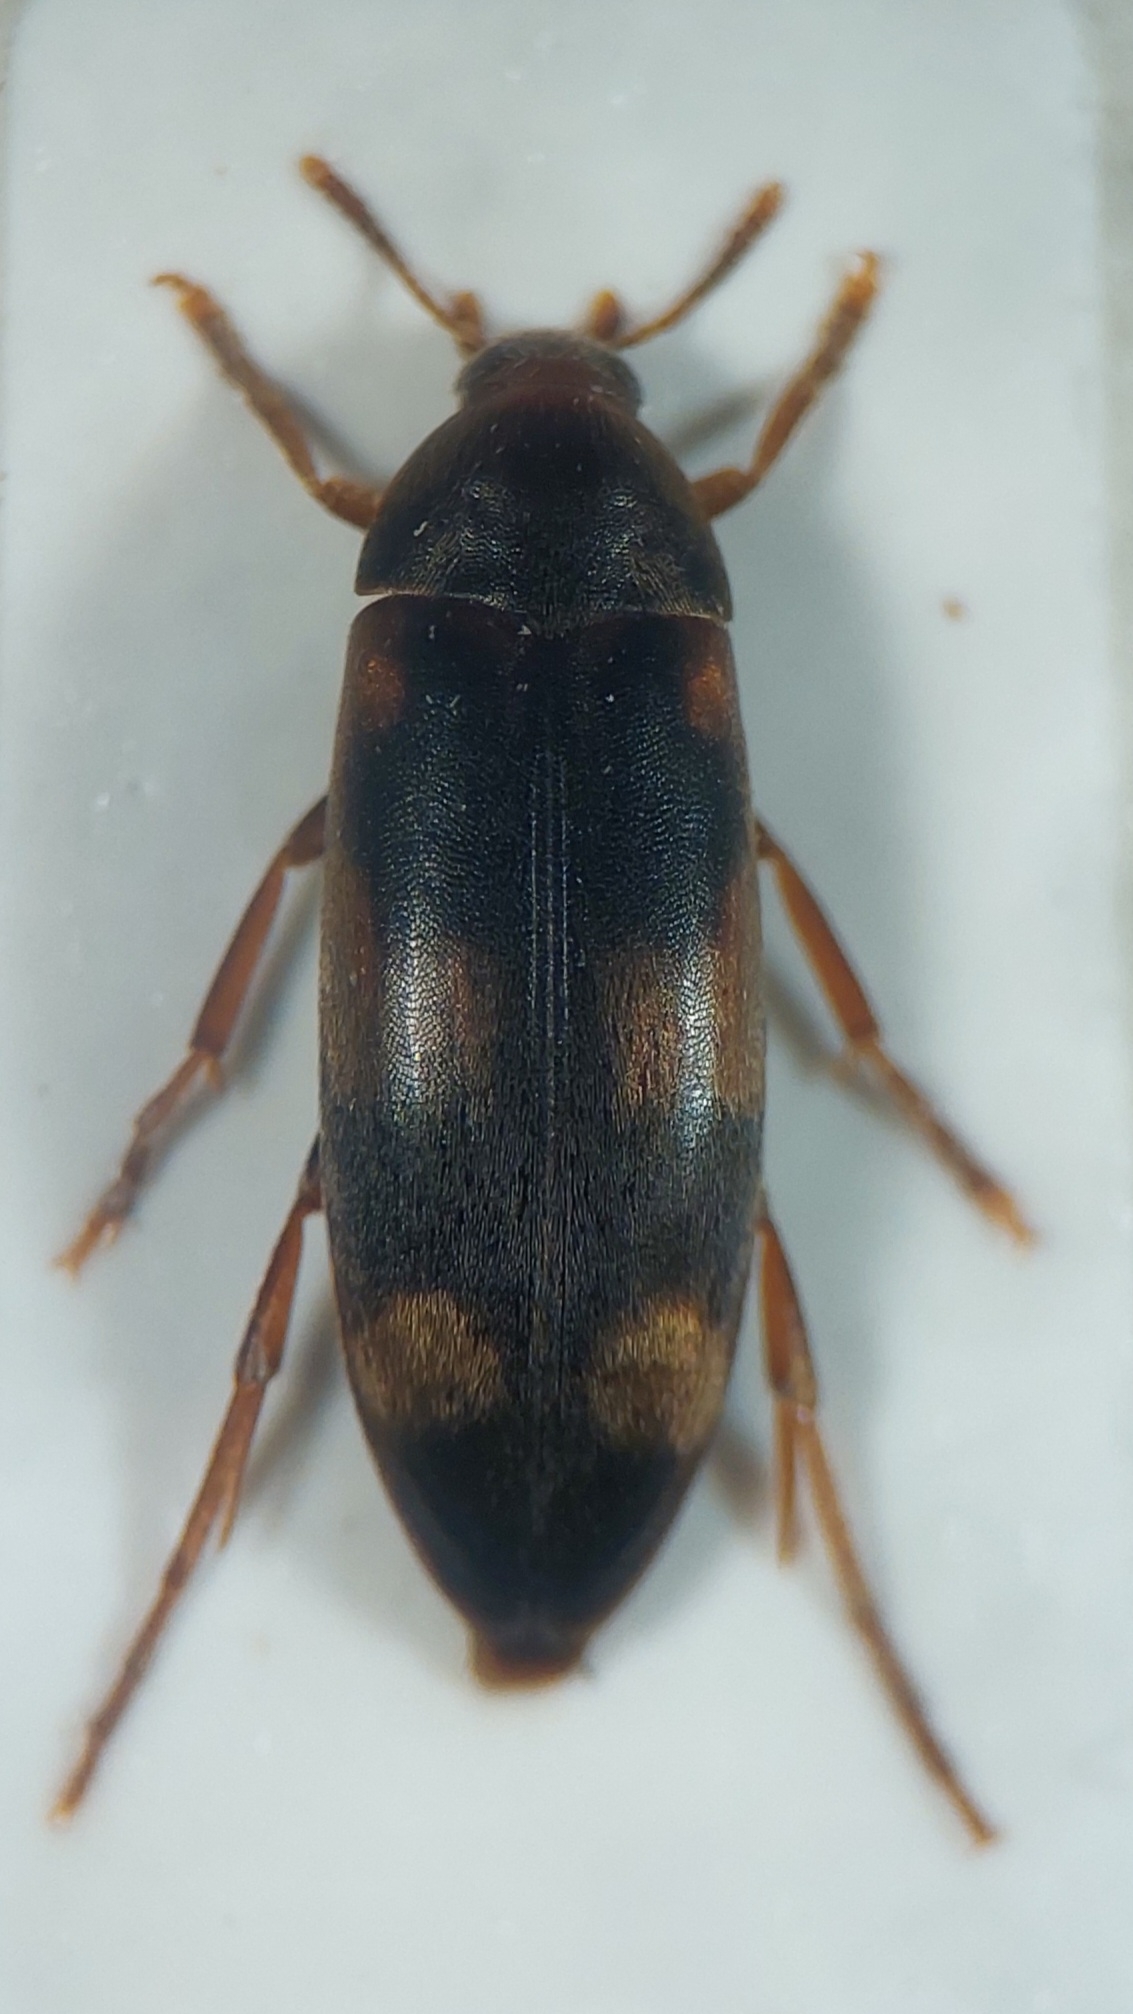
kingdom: Animalia
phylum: Arthropoda
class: Insecta
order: Coleoptera
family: Melandryidae
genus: Orchesia
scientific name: Orchesia fasciata
